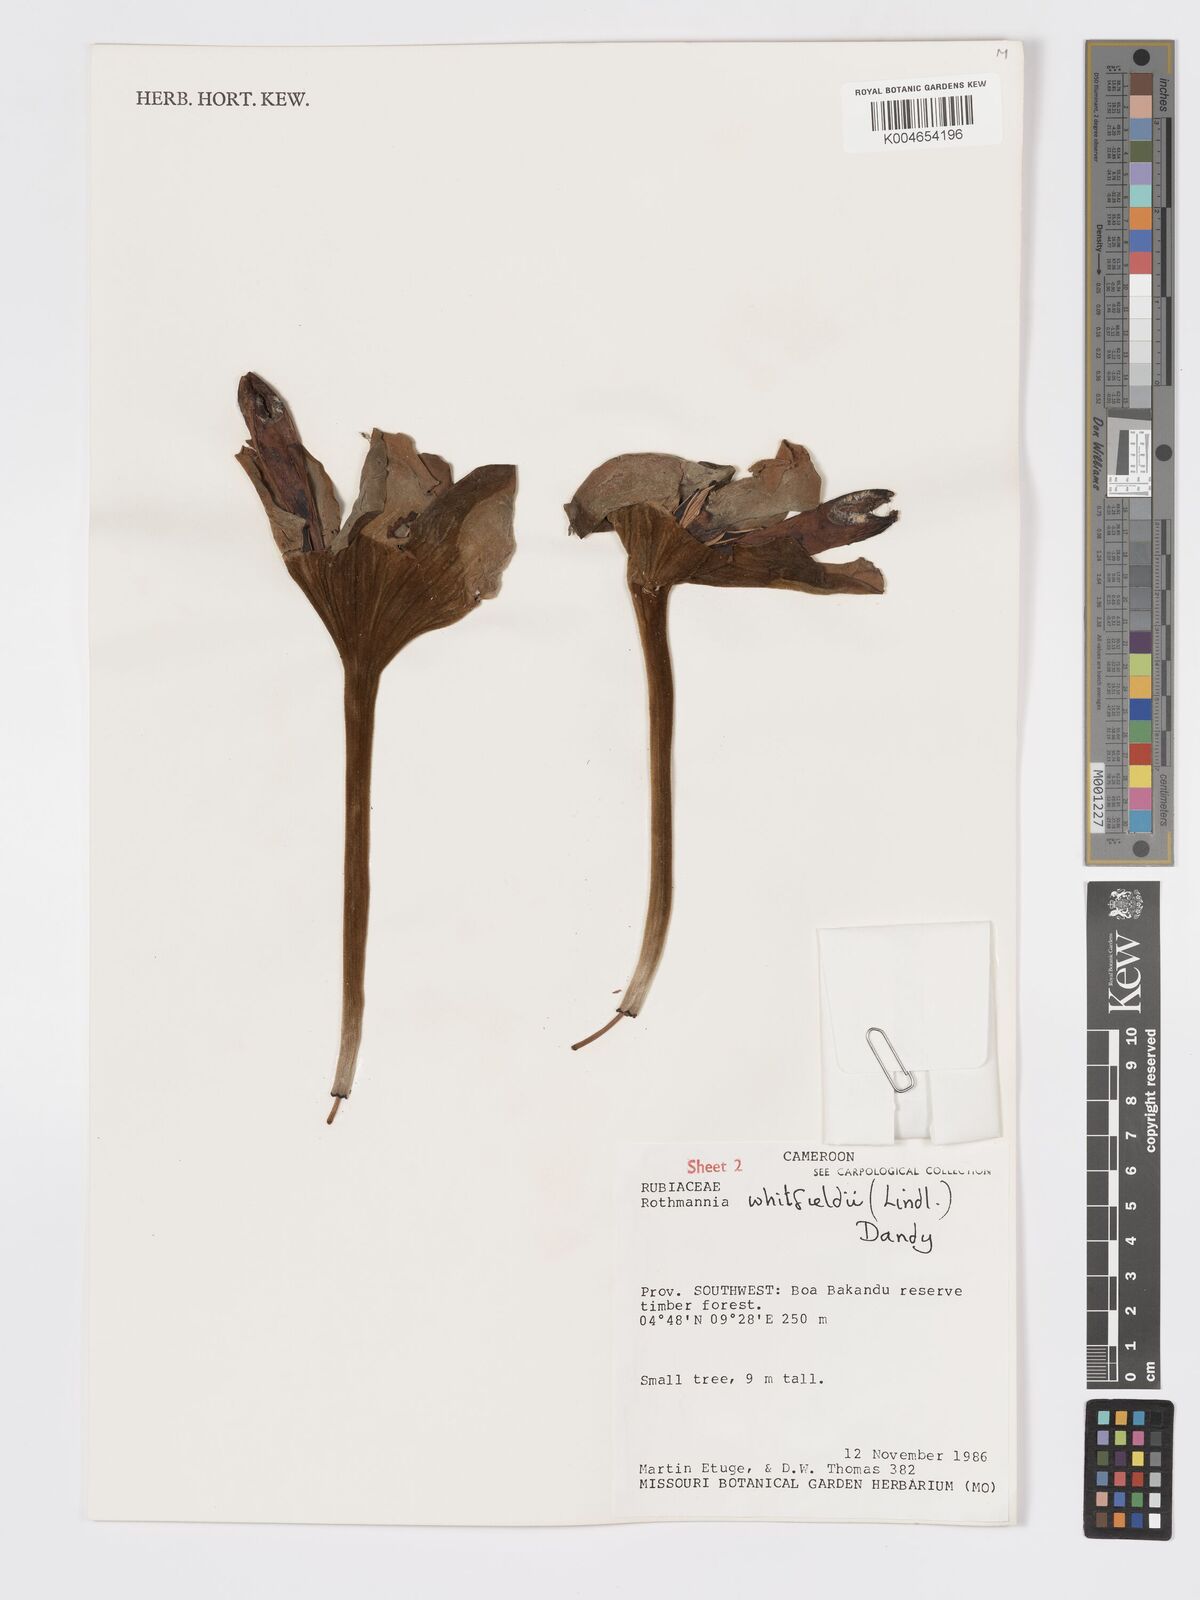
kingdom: Plantae
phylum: Tracheophyta
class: Magnoliopsida
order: Gentianales
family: Rubiaceae
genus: Rothmannia
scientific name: Rothmannia whitfieldii
